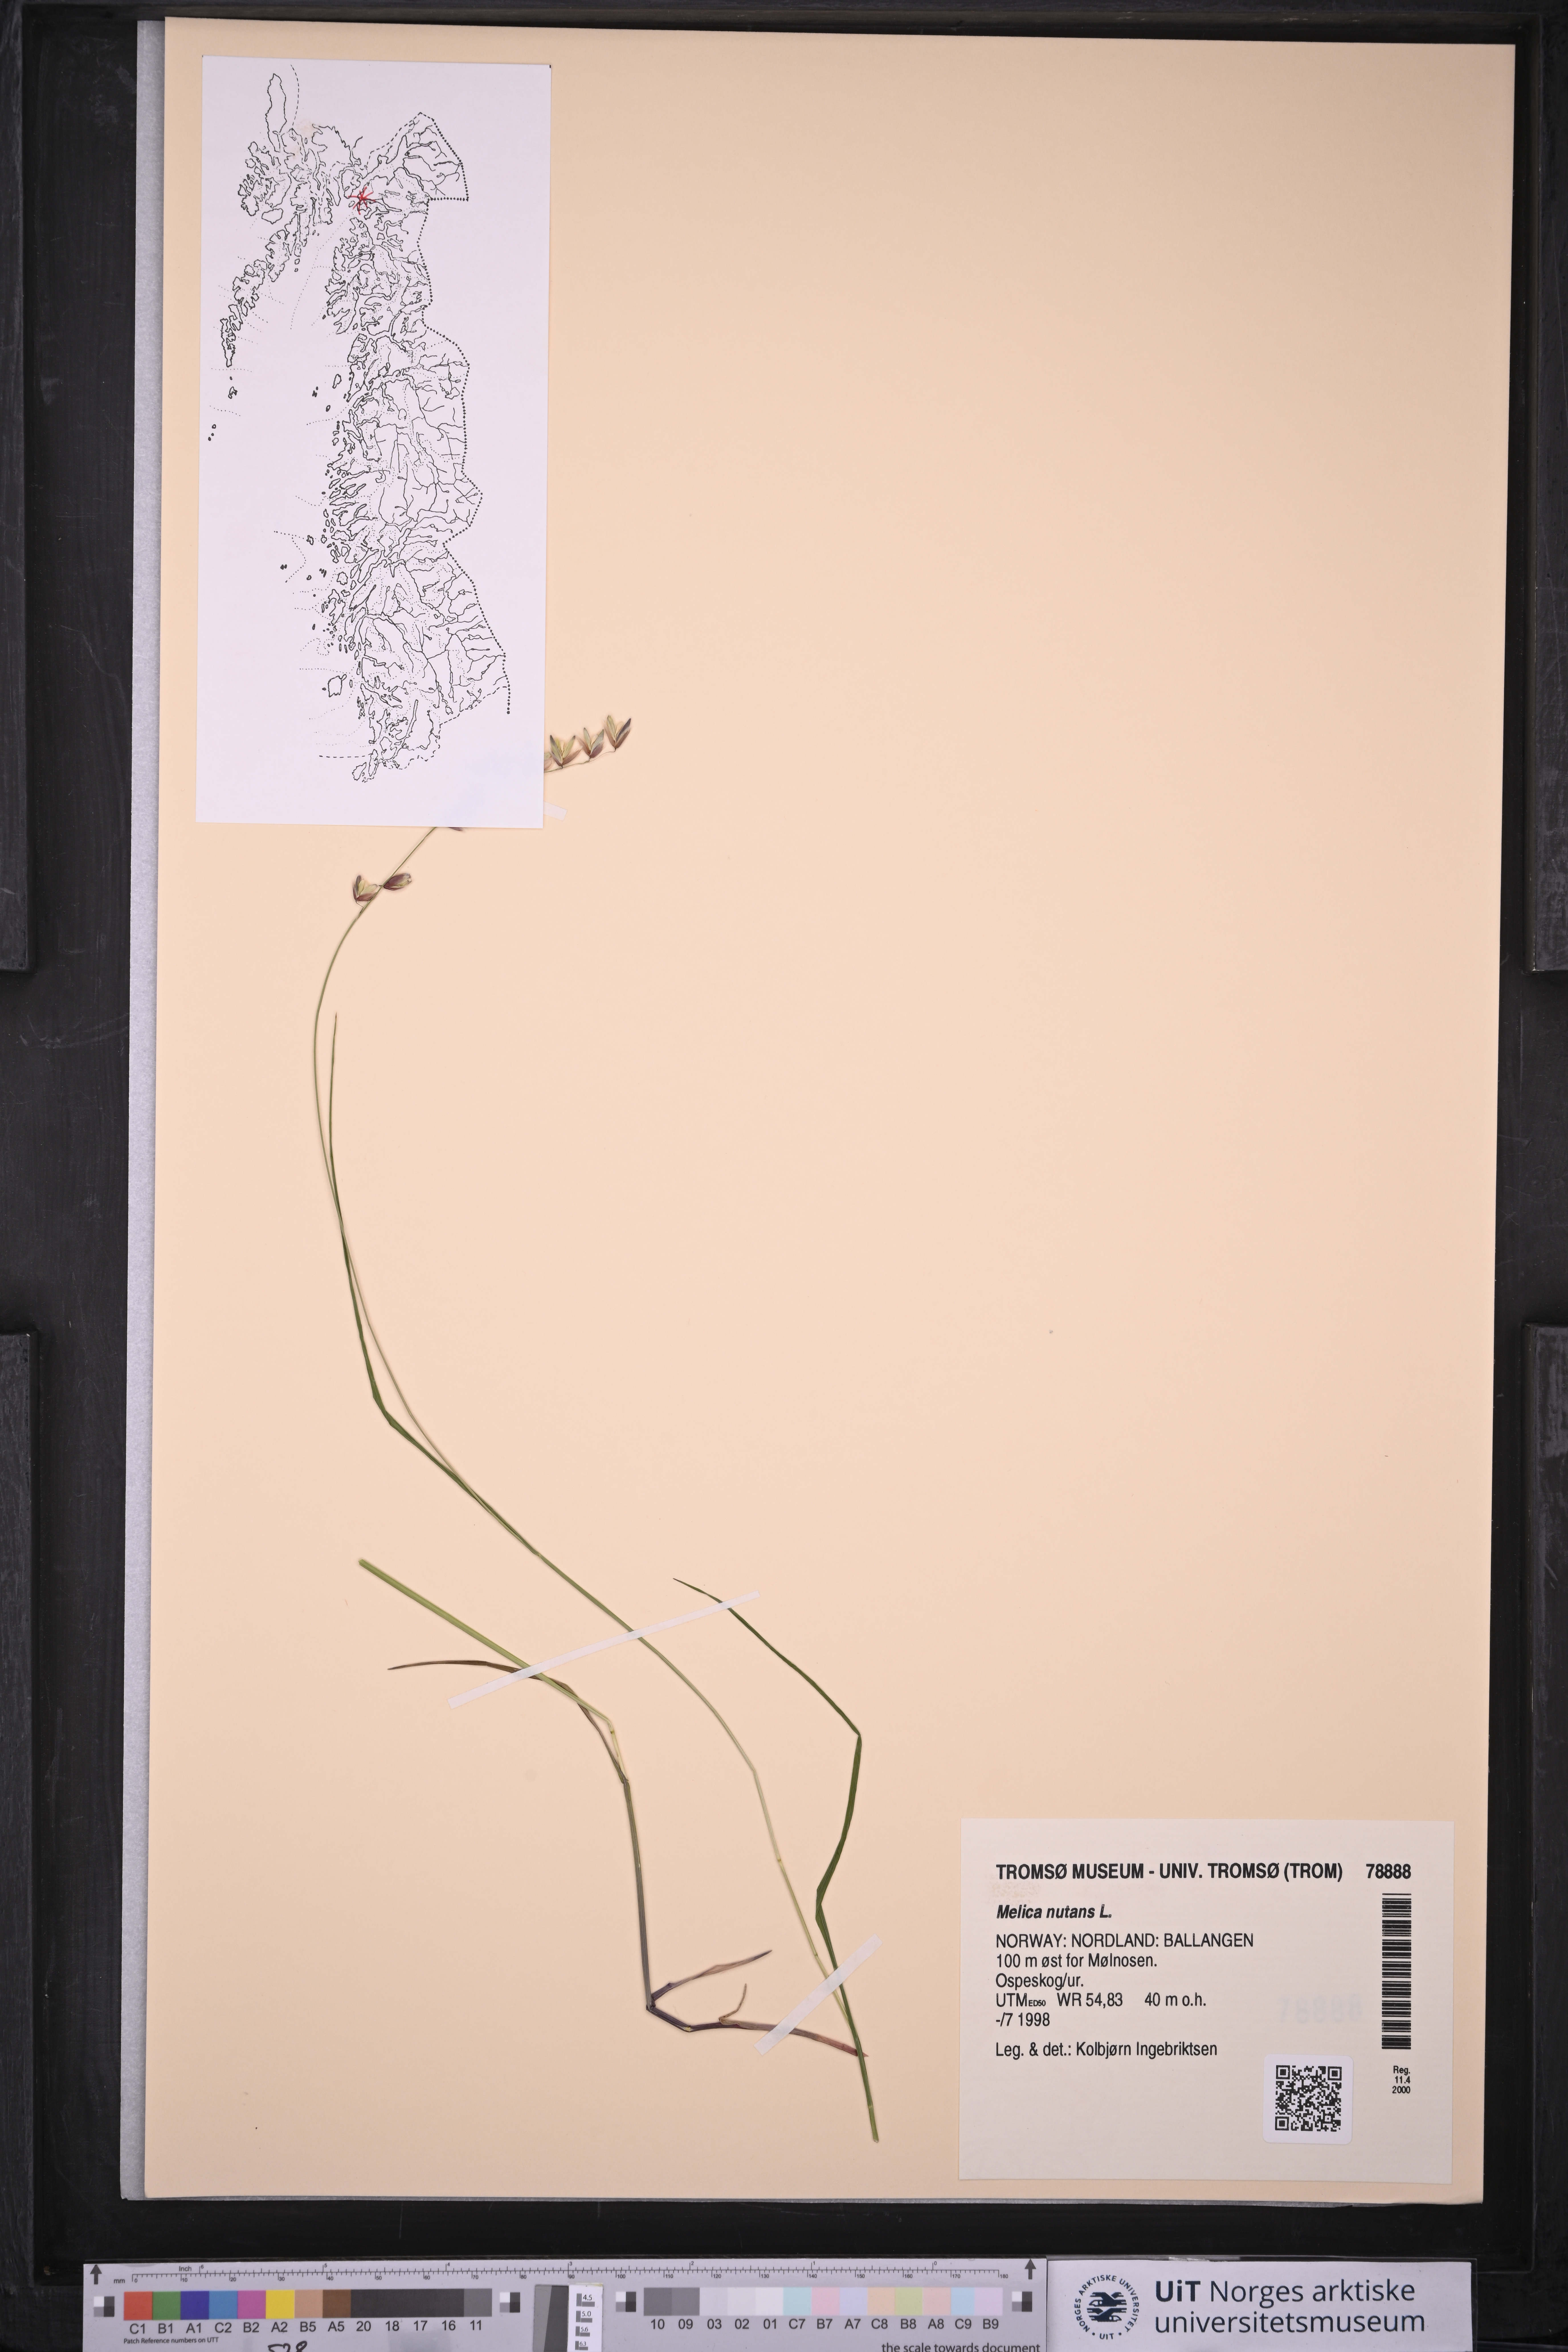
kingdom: Plantae
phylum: Tracheophyta
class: Liliopsida
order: Poales
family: Poaceae
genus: Melica
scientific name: Melica nutans
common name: Mountain melick
